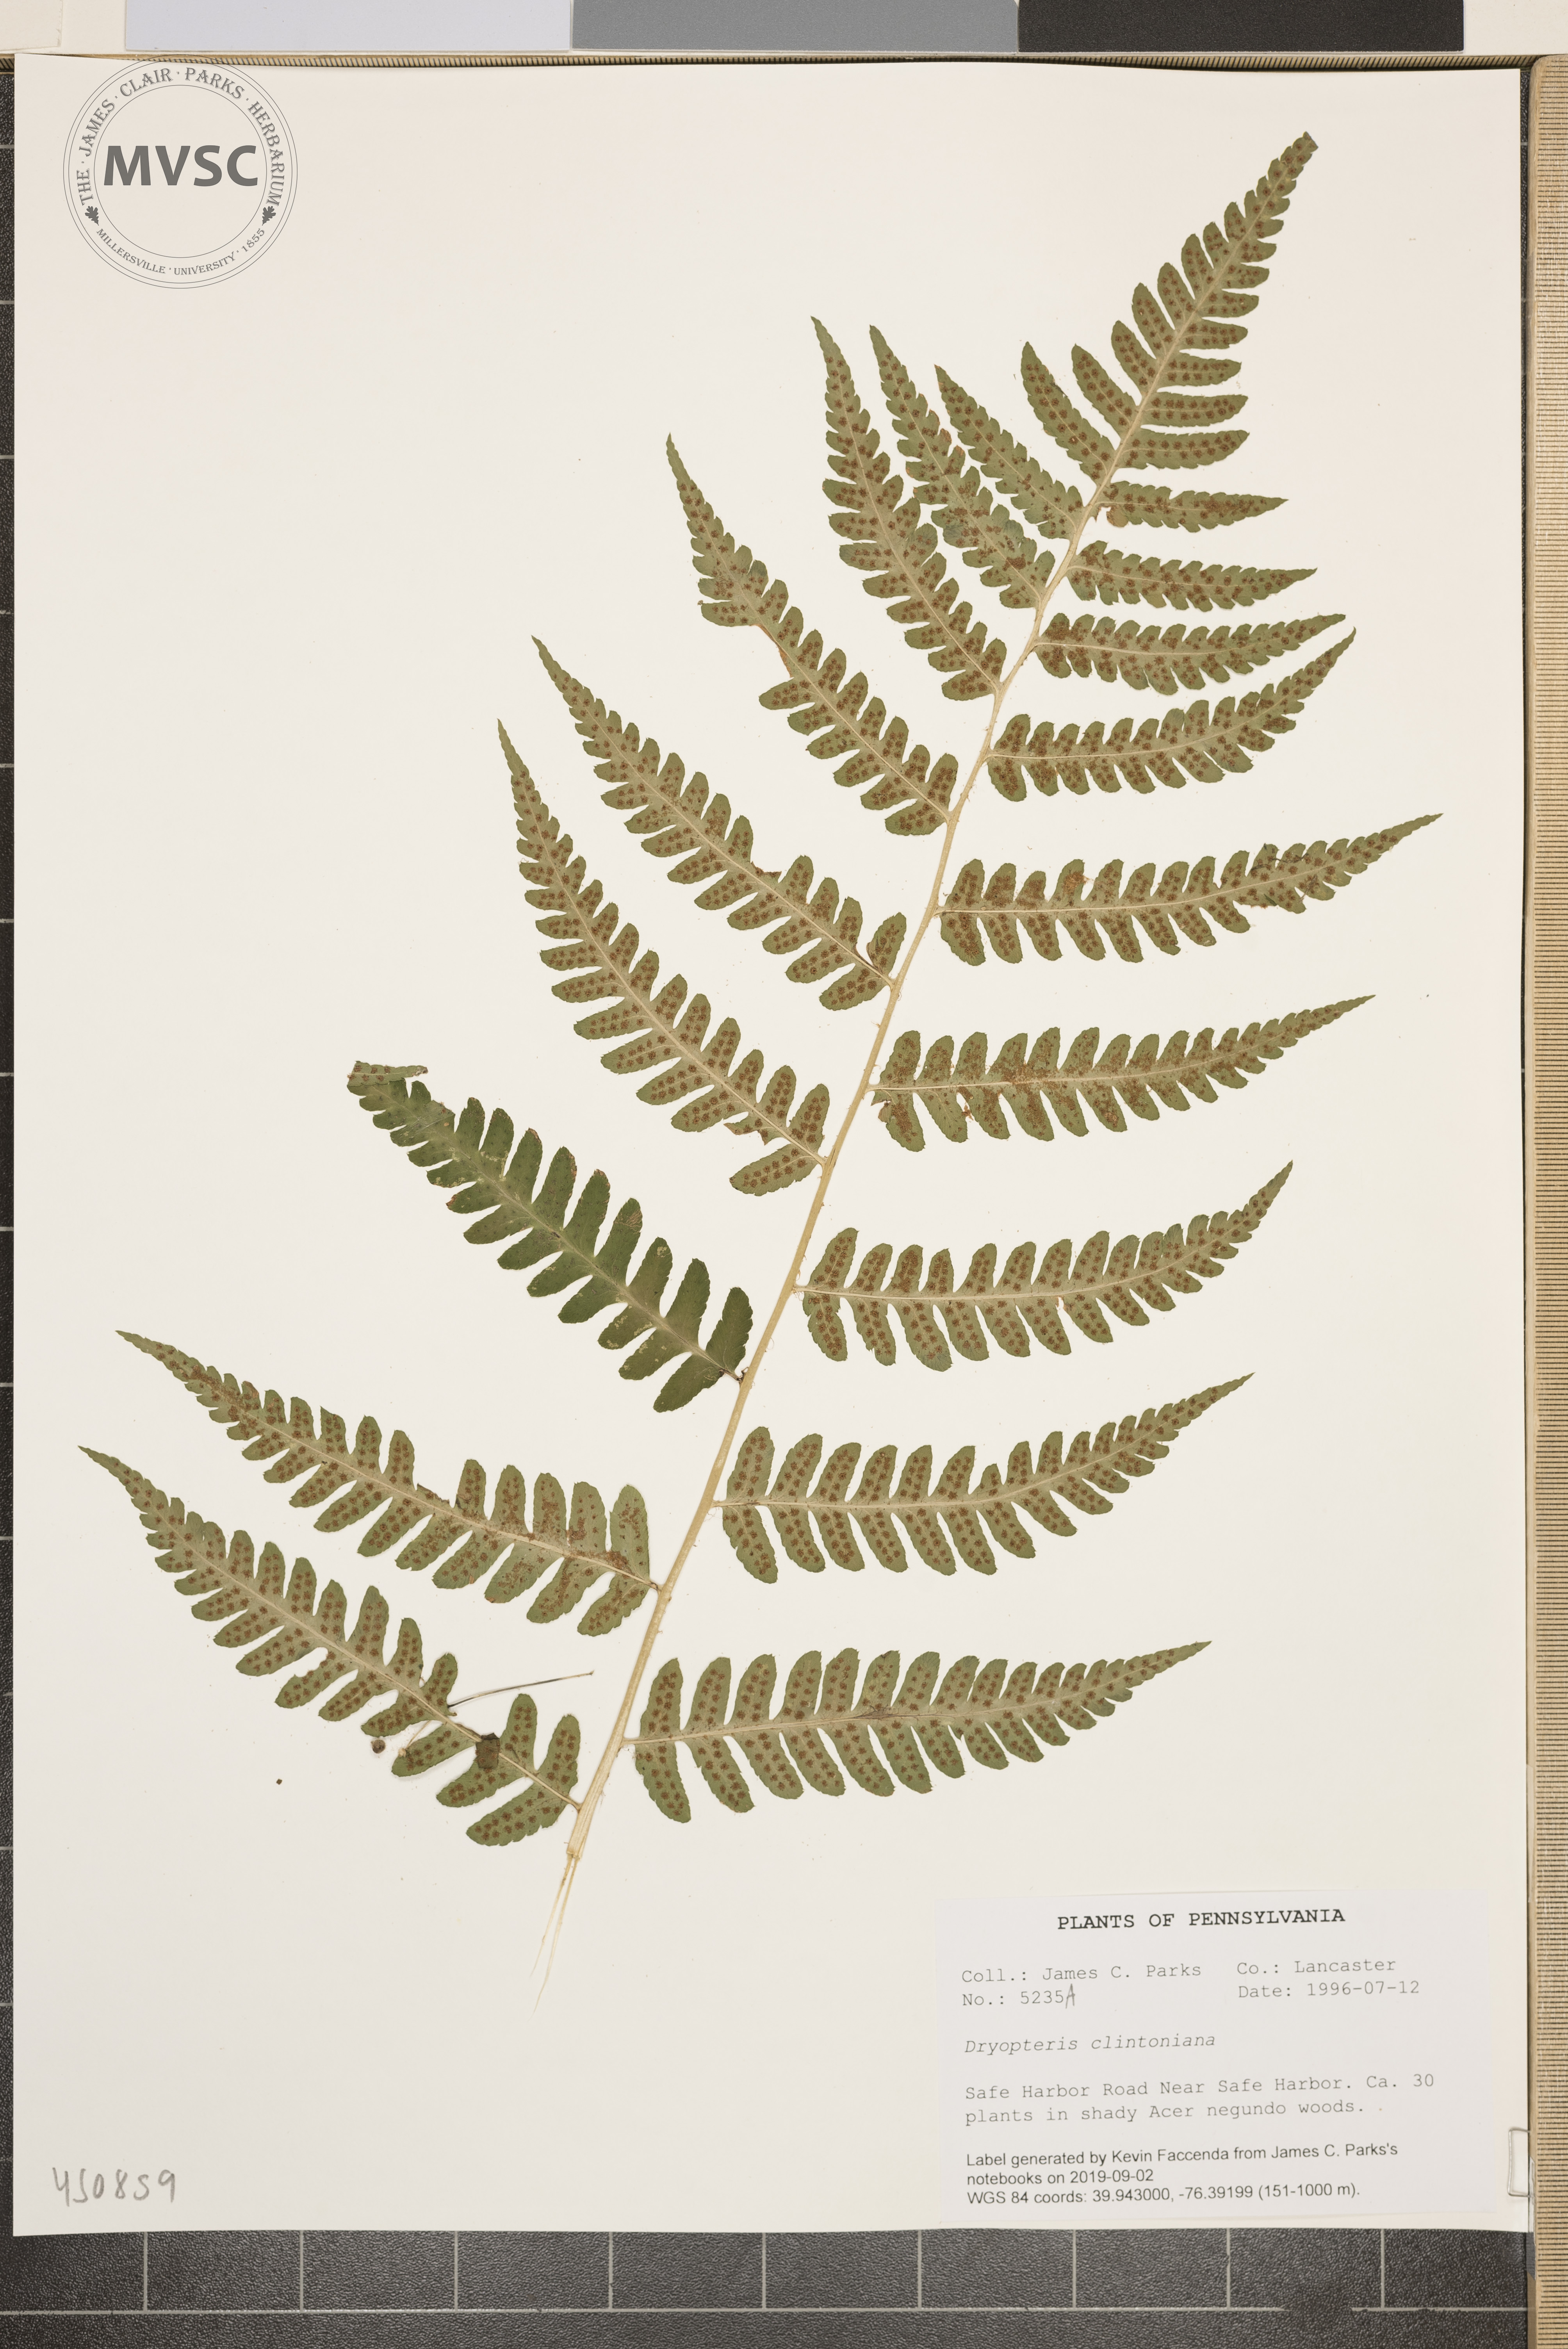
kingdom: Plantae
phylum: Tracheophyta
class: Polypodiopsida
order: Polypodiales
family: Dryopteridaceae
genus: Dryopteris
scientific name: Dryopteris clintoniana
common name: Clinton's wood fern
